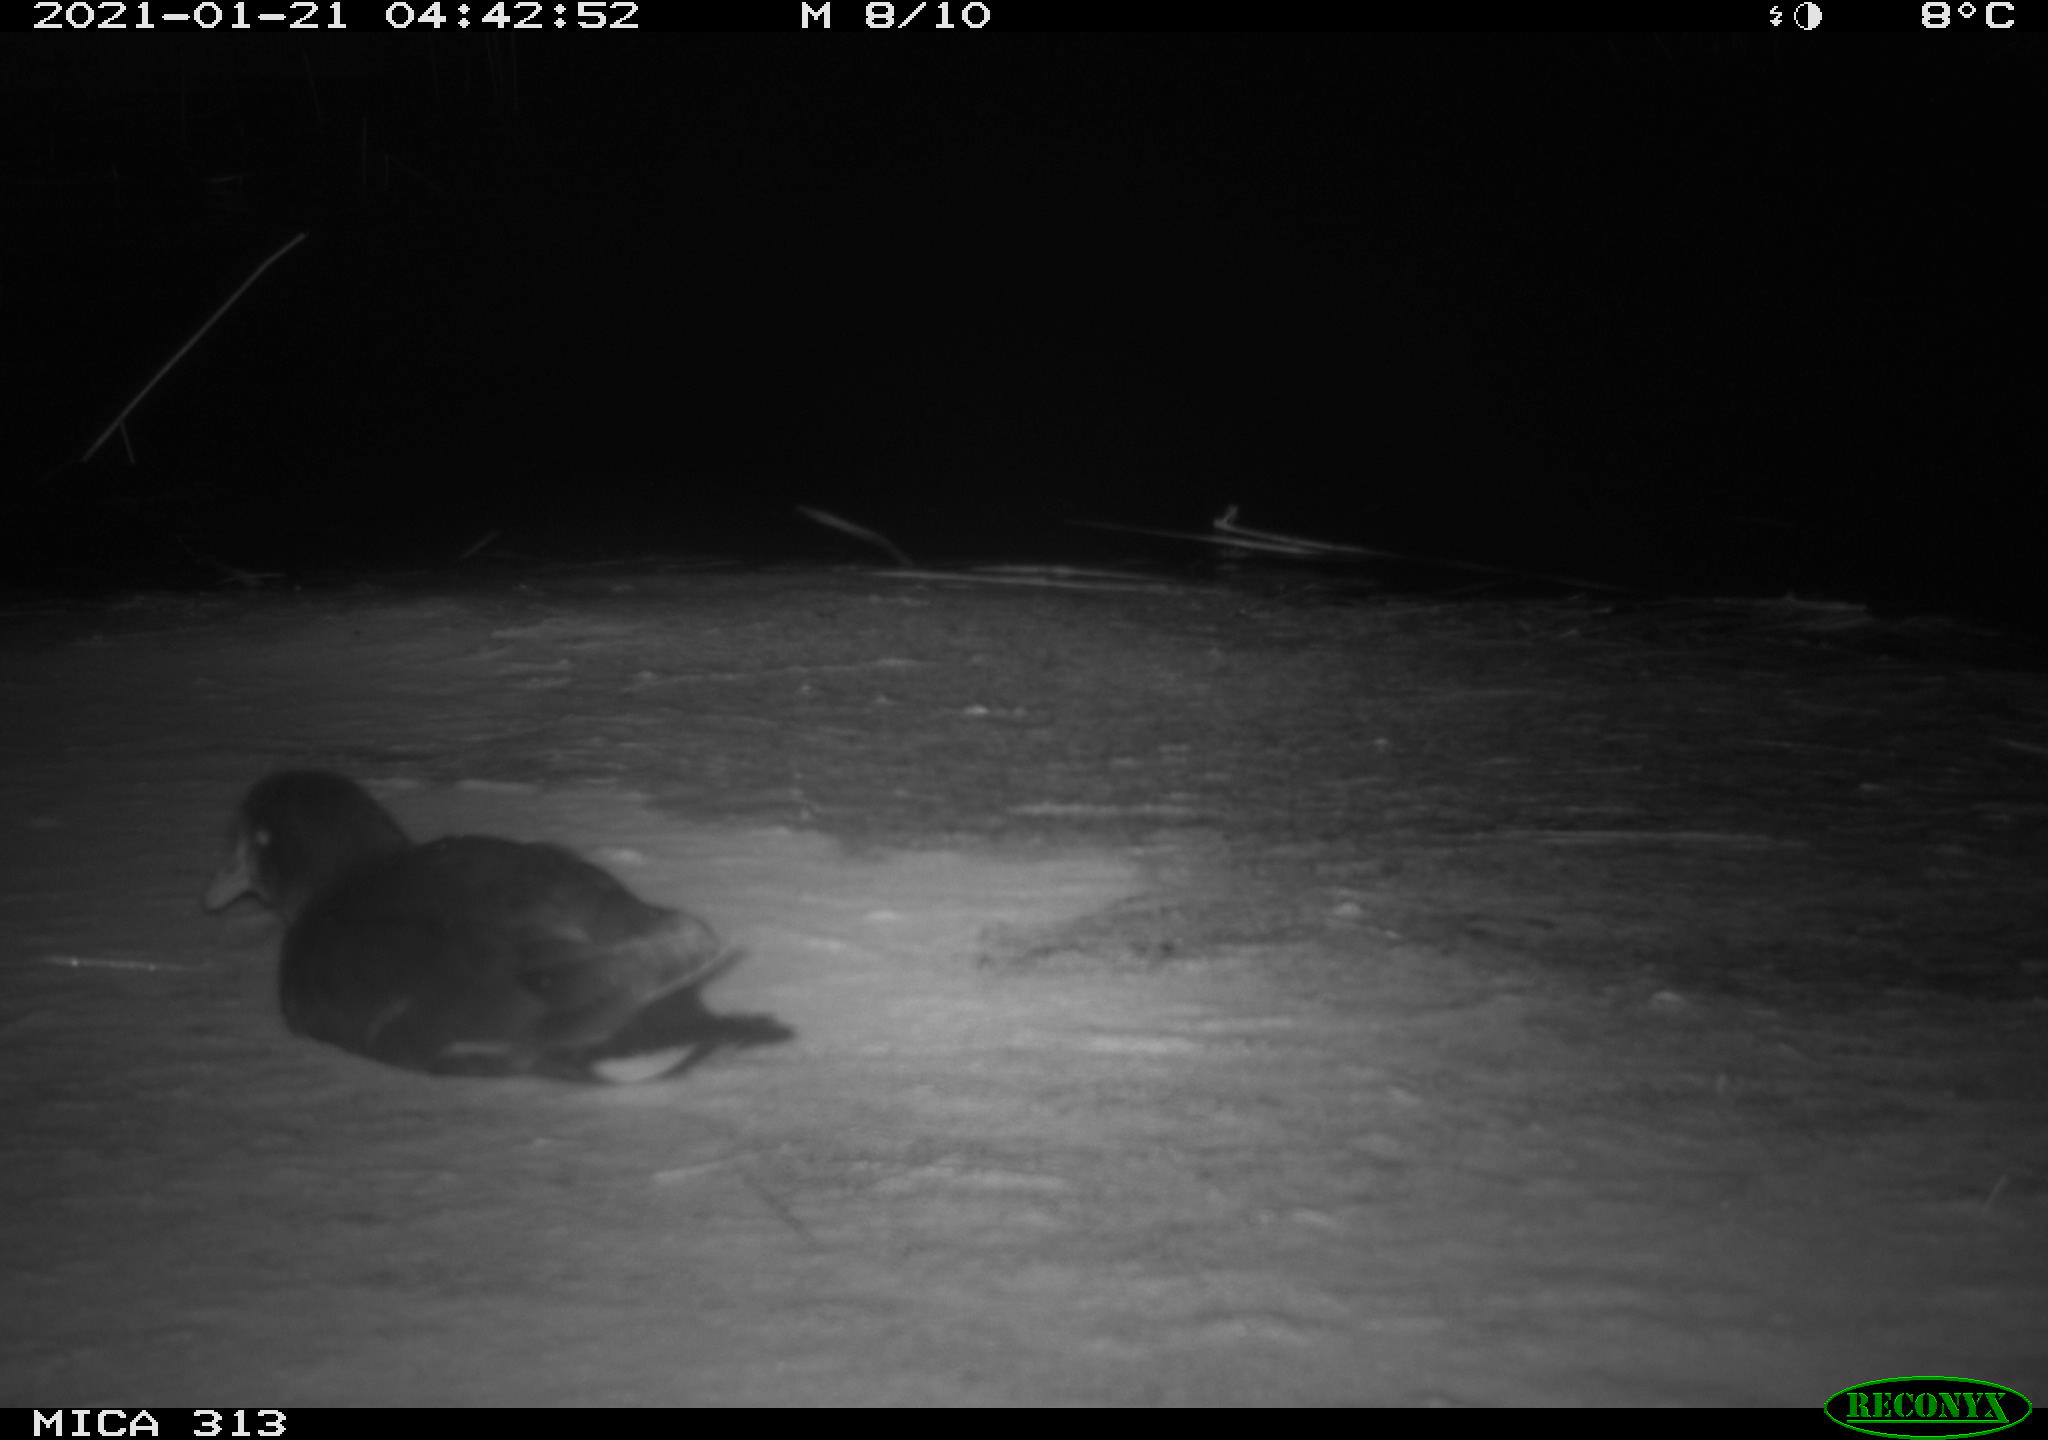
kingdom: Animalia
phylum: Chordata
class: Aves
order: Gruiformes
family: Rallidae
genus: Fulica
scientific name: Fulica atra
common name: Eurasian coot
